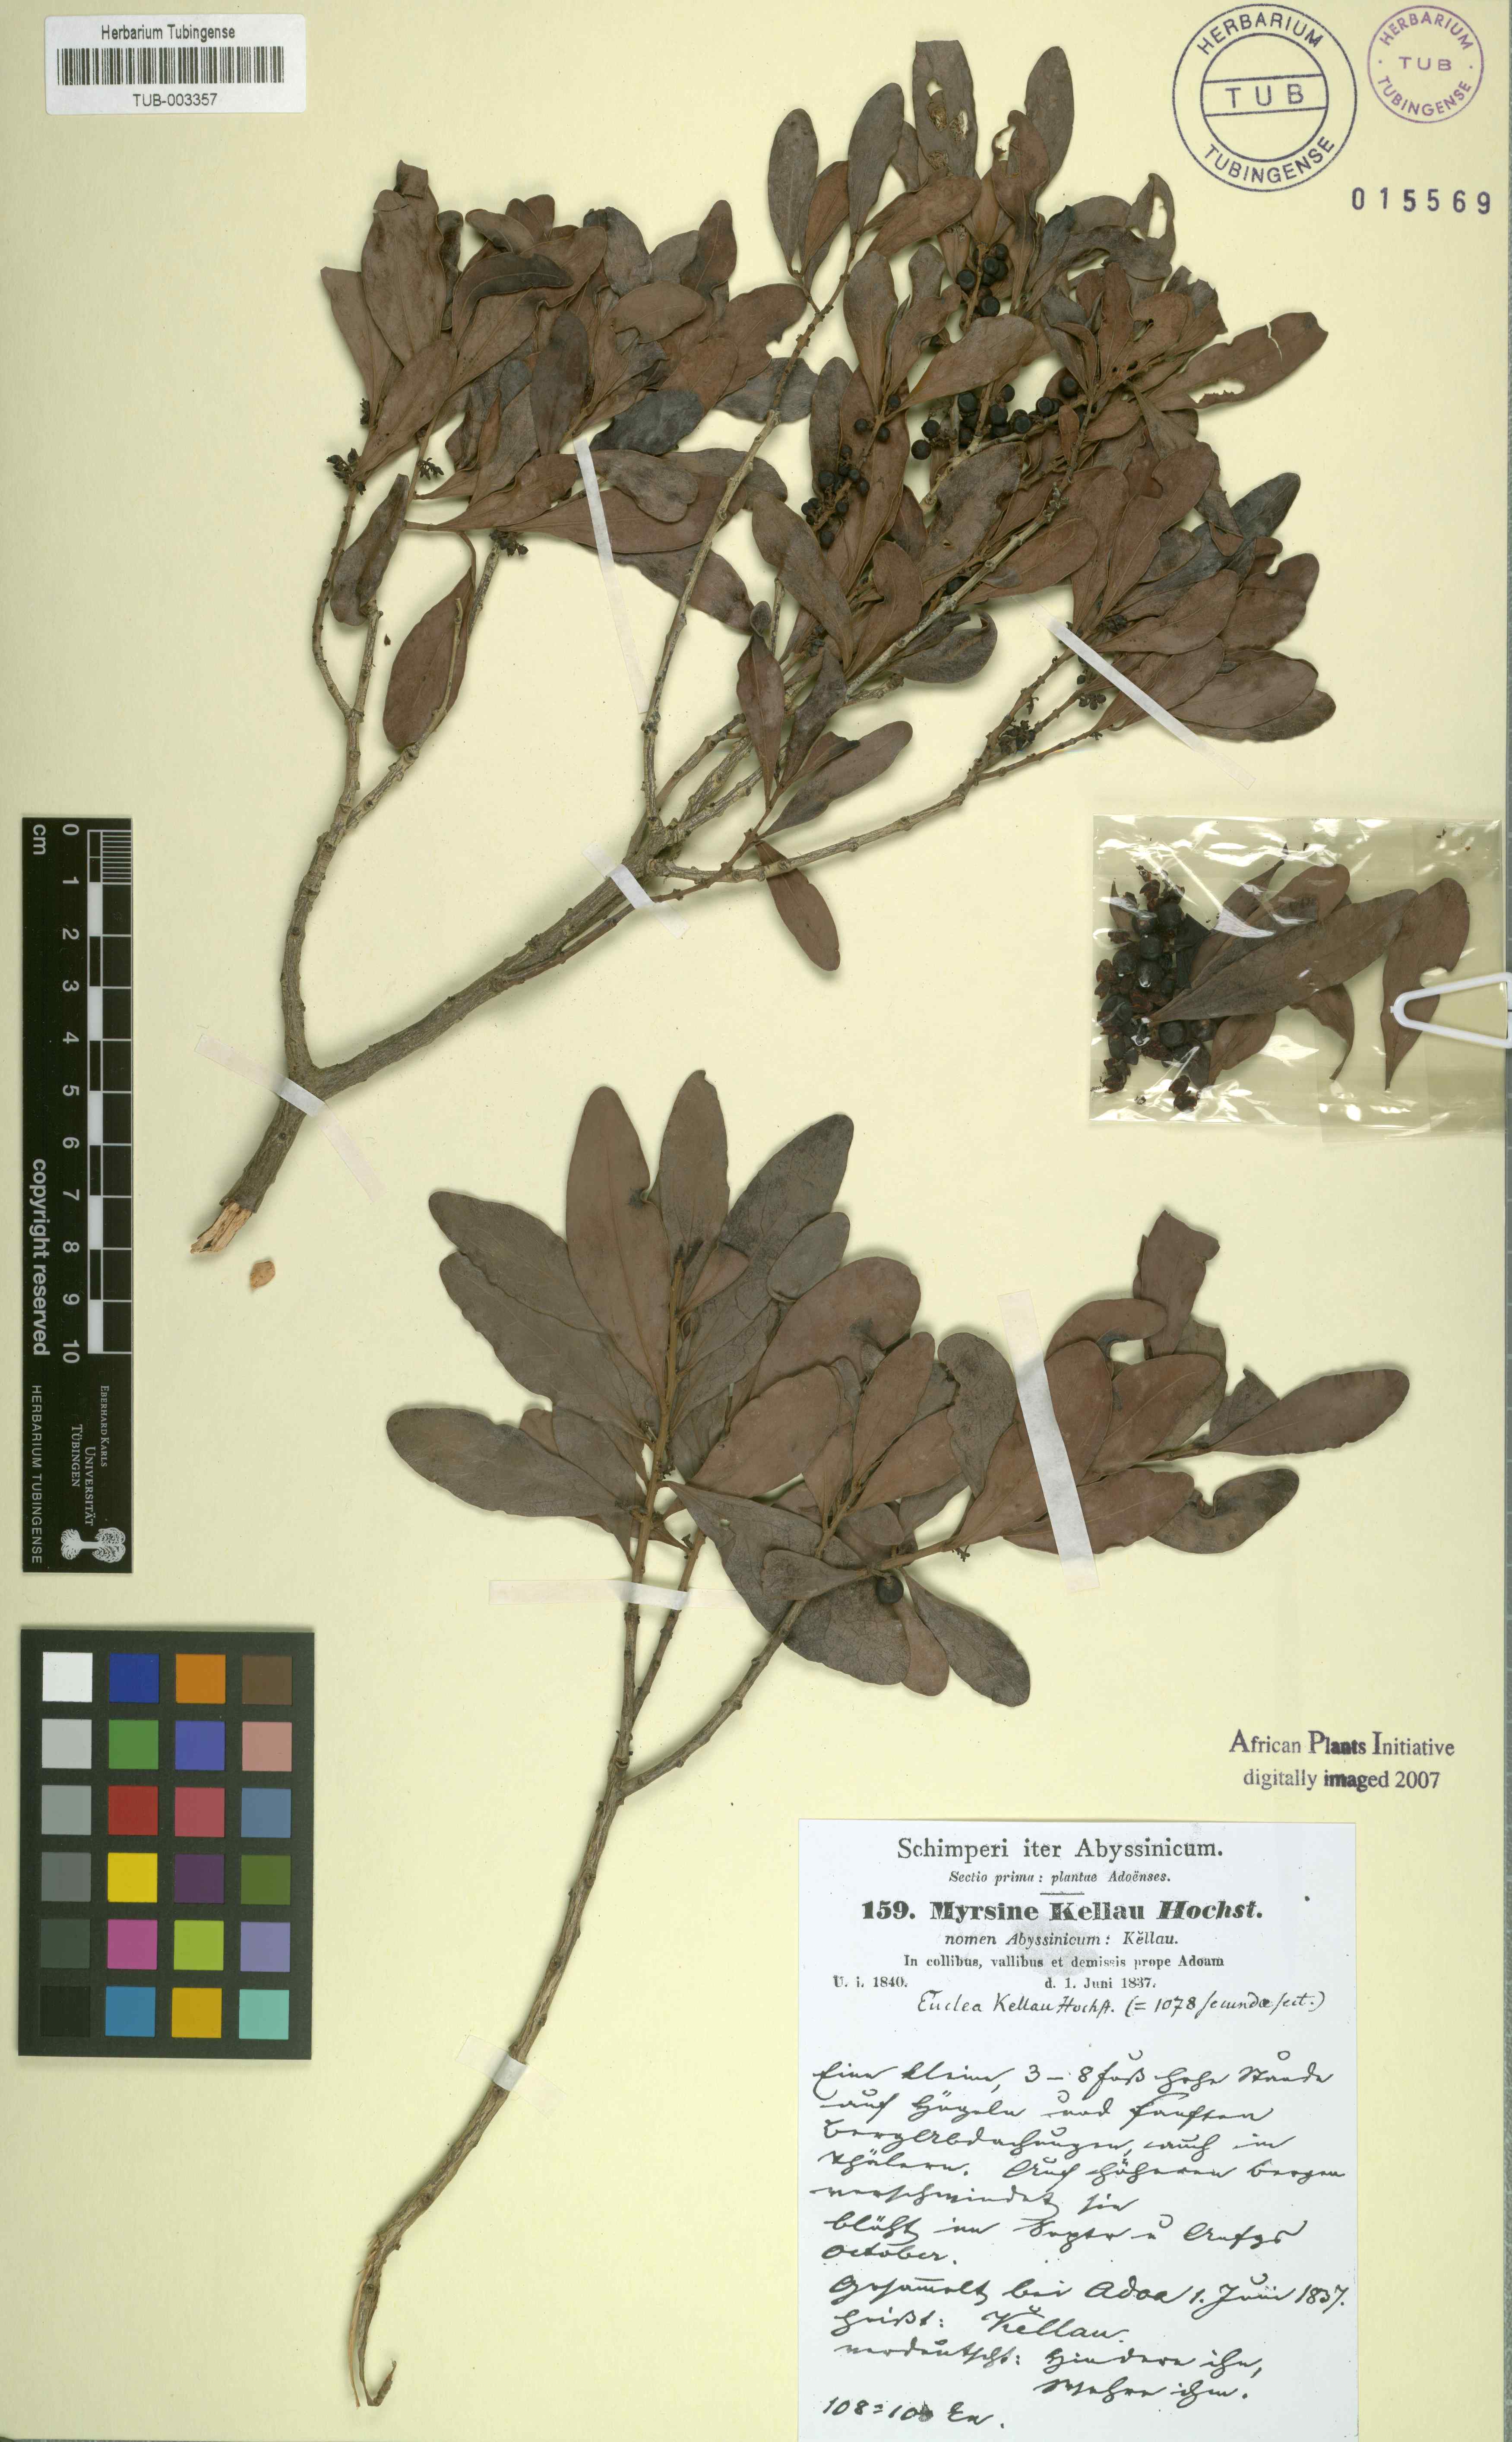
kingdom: Plantae
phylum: Tracheophyta
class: Magnoliopsida
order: Ericales
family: Ebenaceae
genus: Euclea
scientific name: Euclea racemosa
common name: Dune guarri
